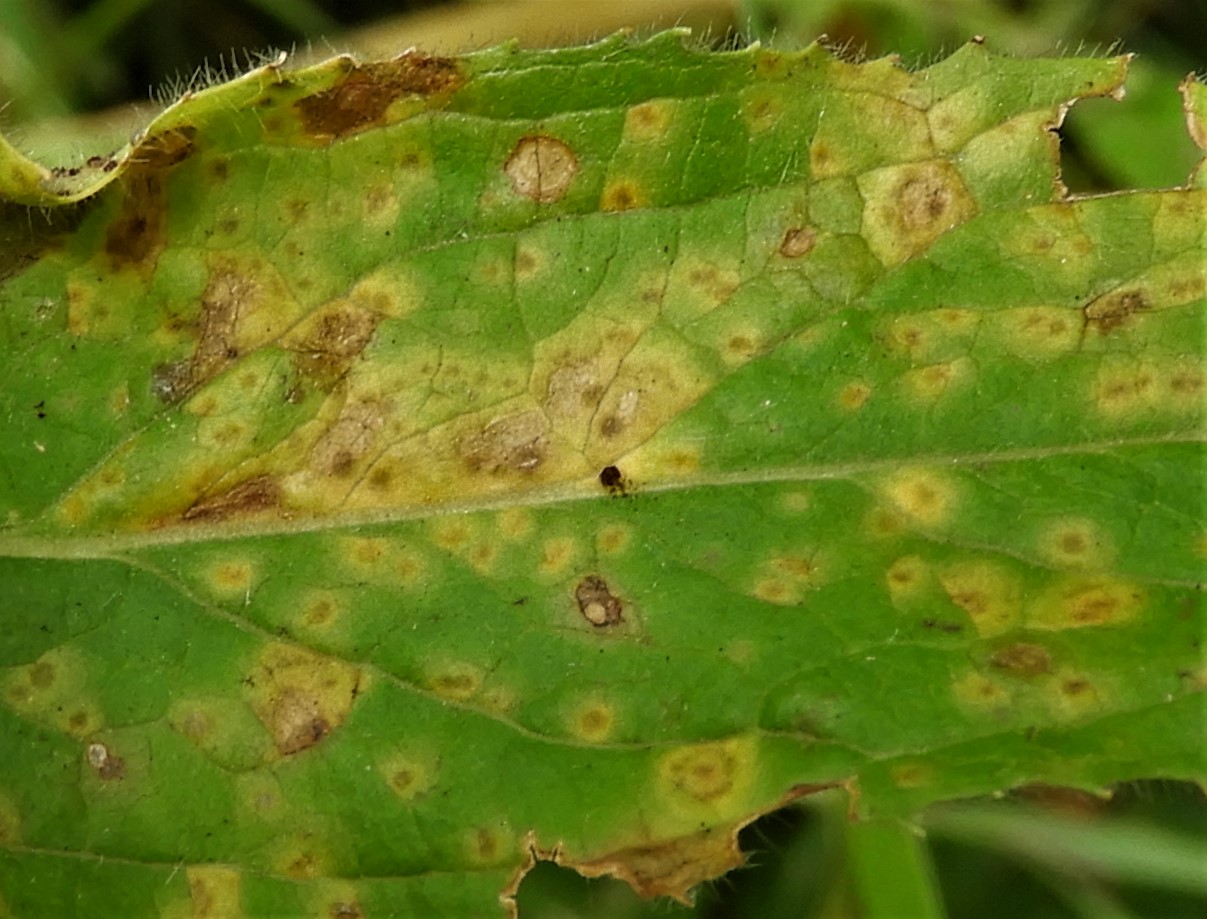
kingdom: Fungi
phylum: Basidiomycota
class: Pucciniomycetes
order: Pucciniales
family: Pucciniaceae
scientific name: Pucciniaceae
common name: rustsvampfamilien
